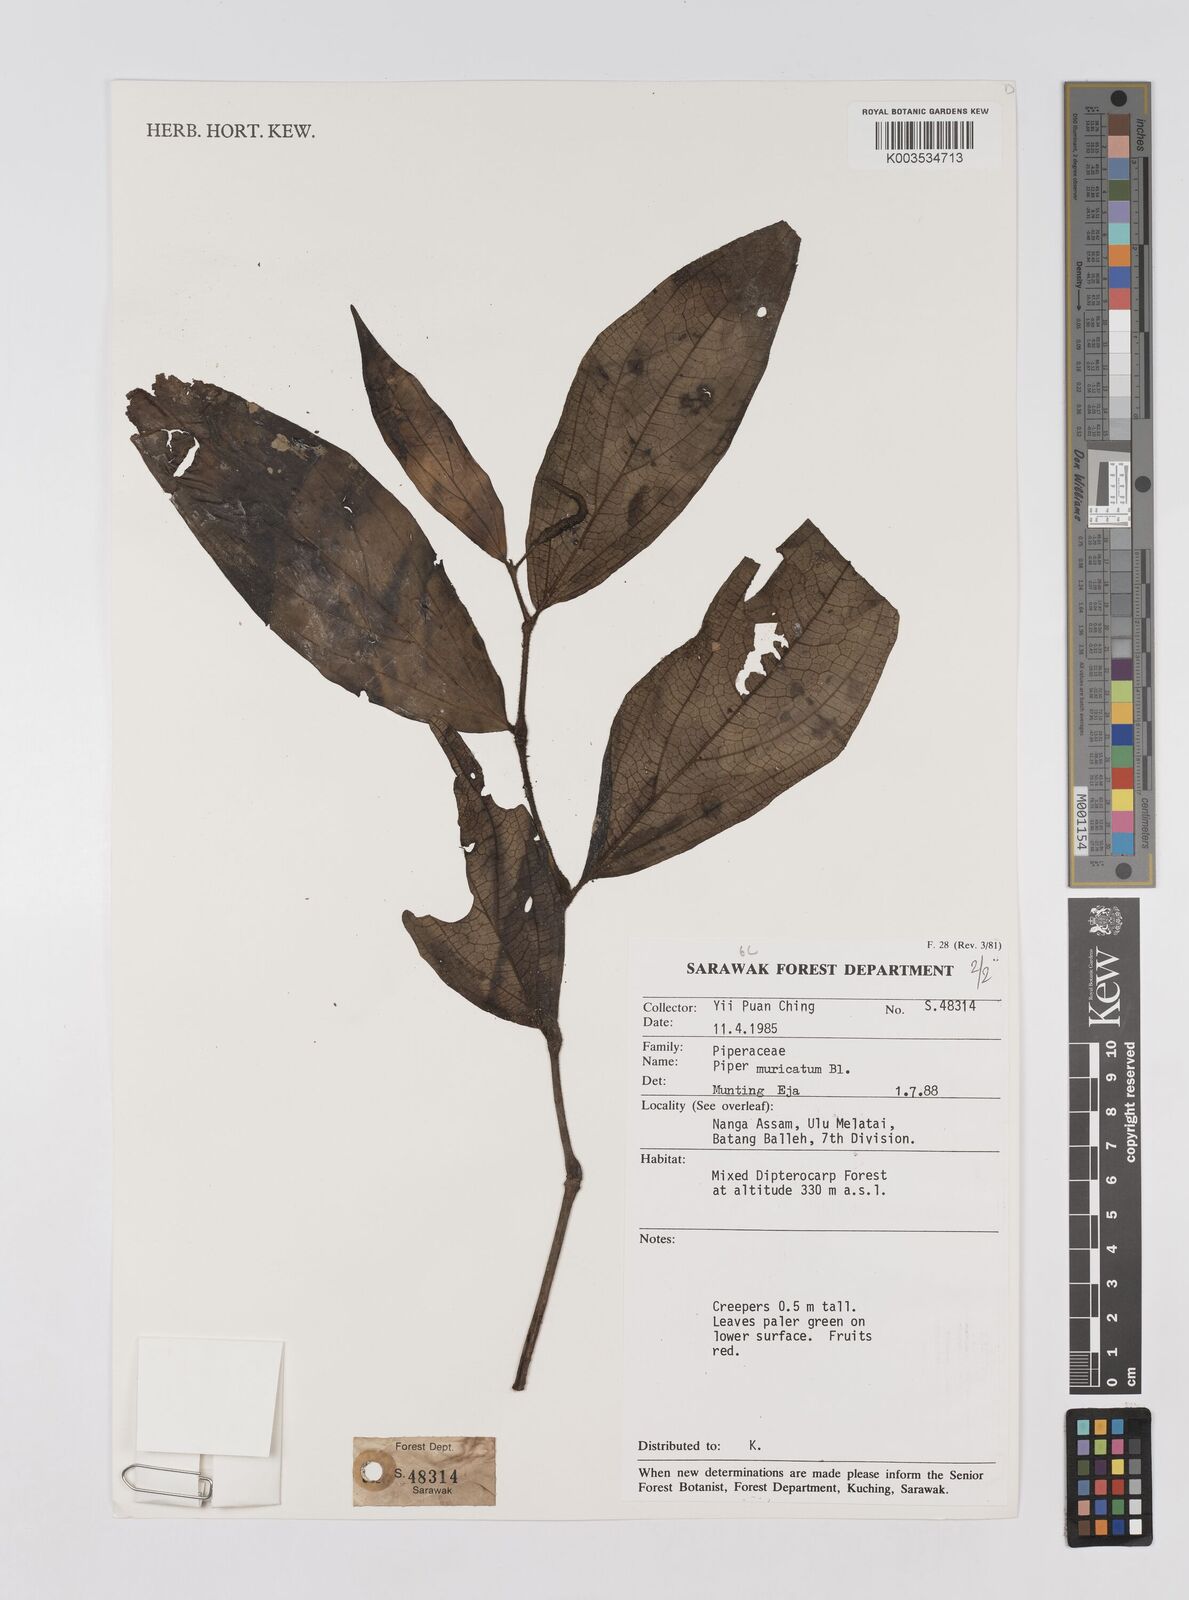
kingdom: Plantae
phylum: Tracheophyta
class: Magnoliopsida
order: Piperales
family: Piperaceae
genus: Piper
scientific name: Piper muricatum
